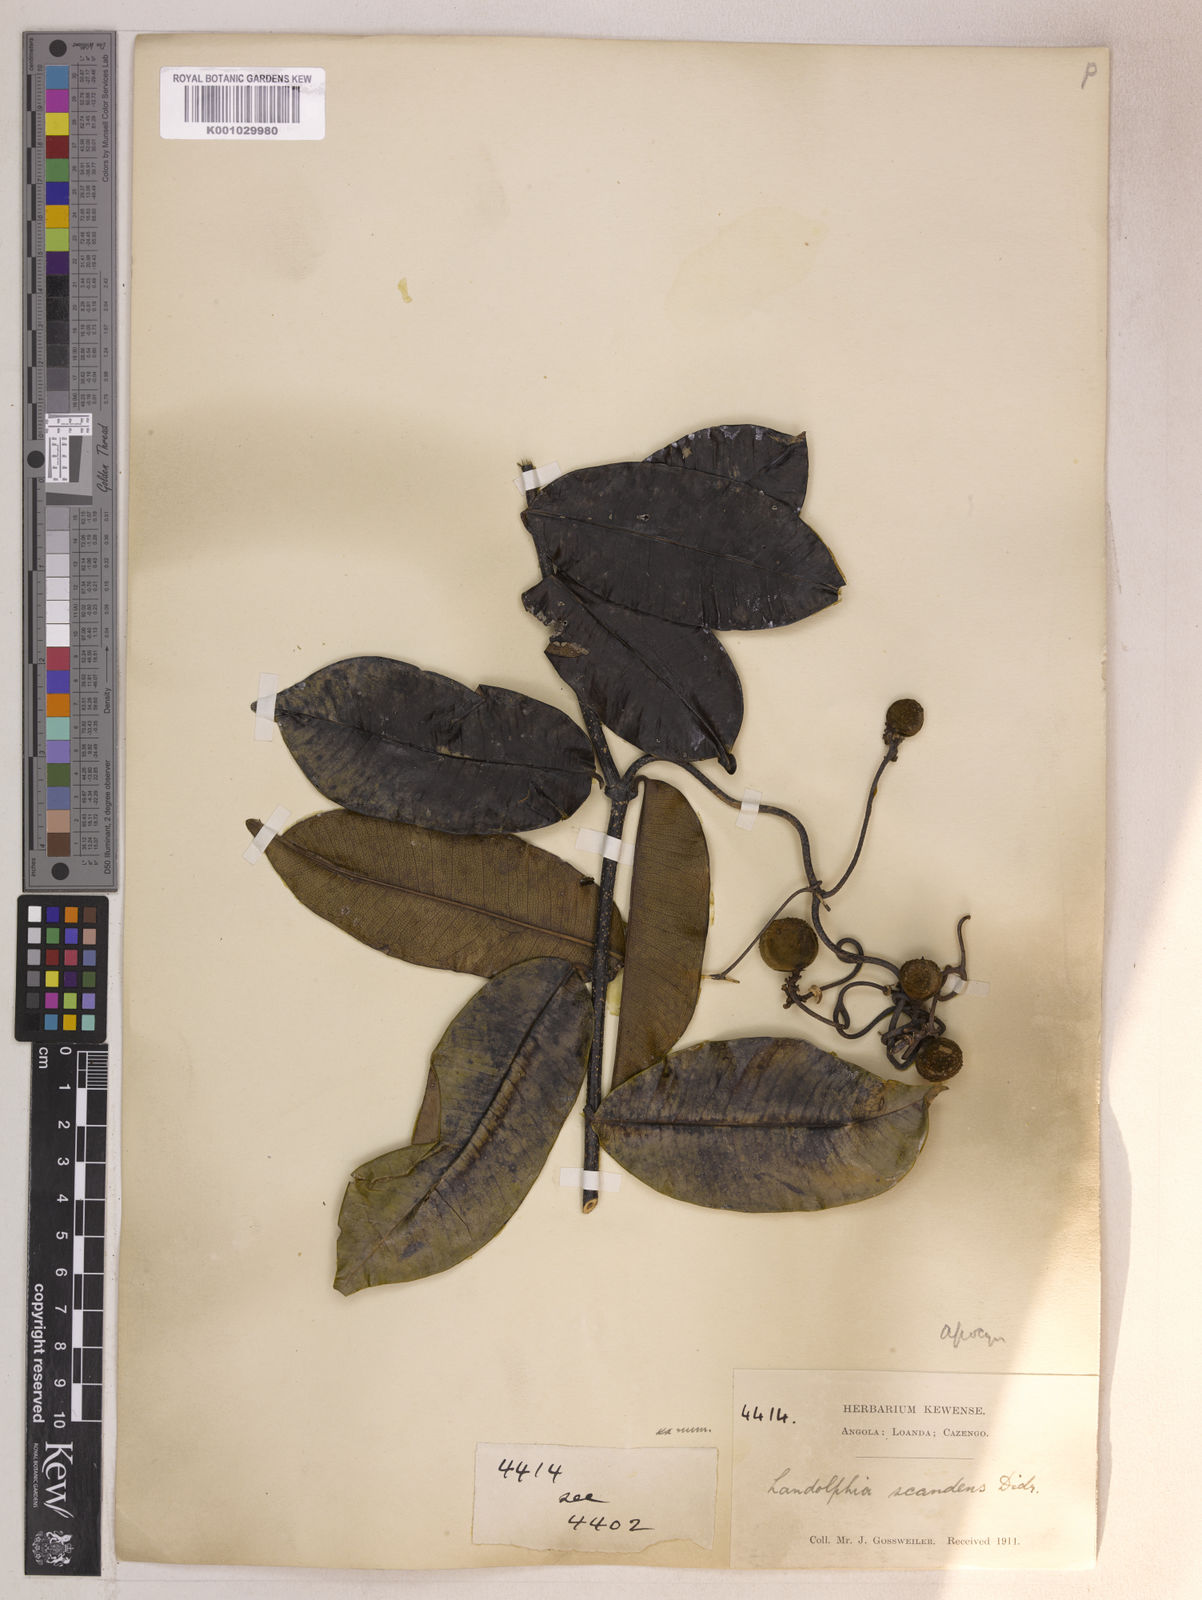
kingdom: Plantae
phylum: Tracheophyta
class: Magnoliopsida
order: Gentianales
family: Apocynaceae
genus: Ancylobothrys
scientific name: Ancylobothrys scandens
